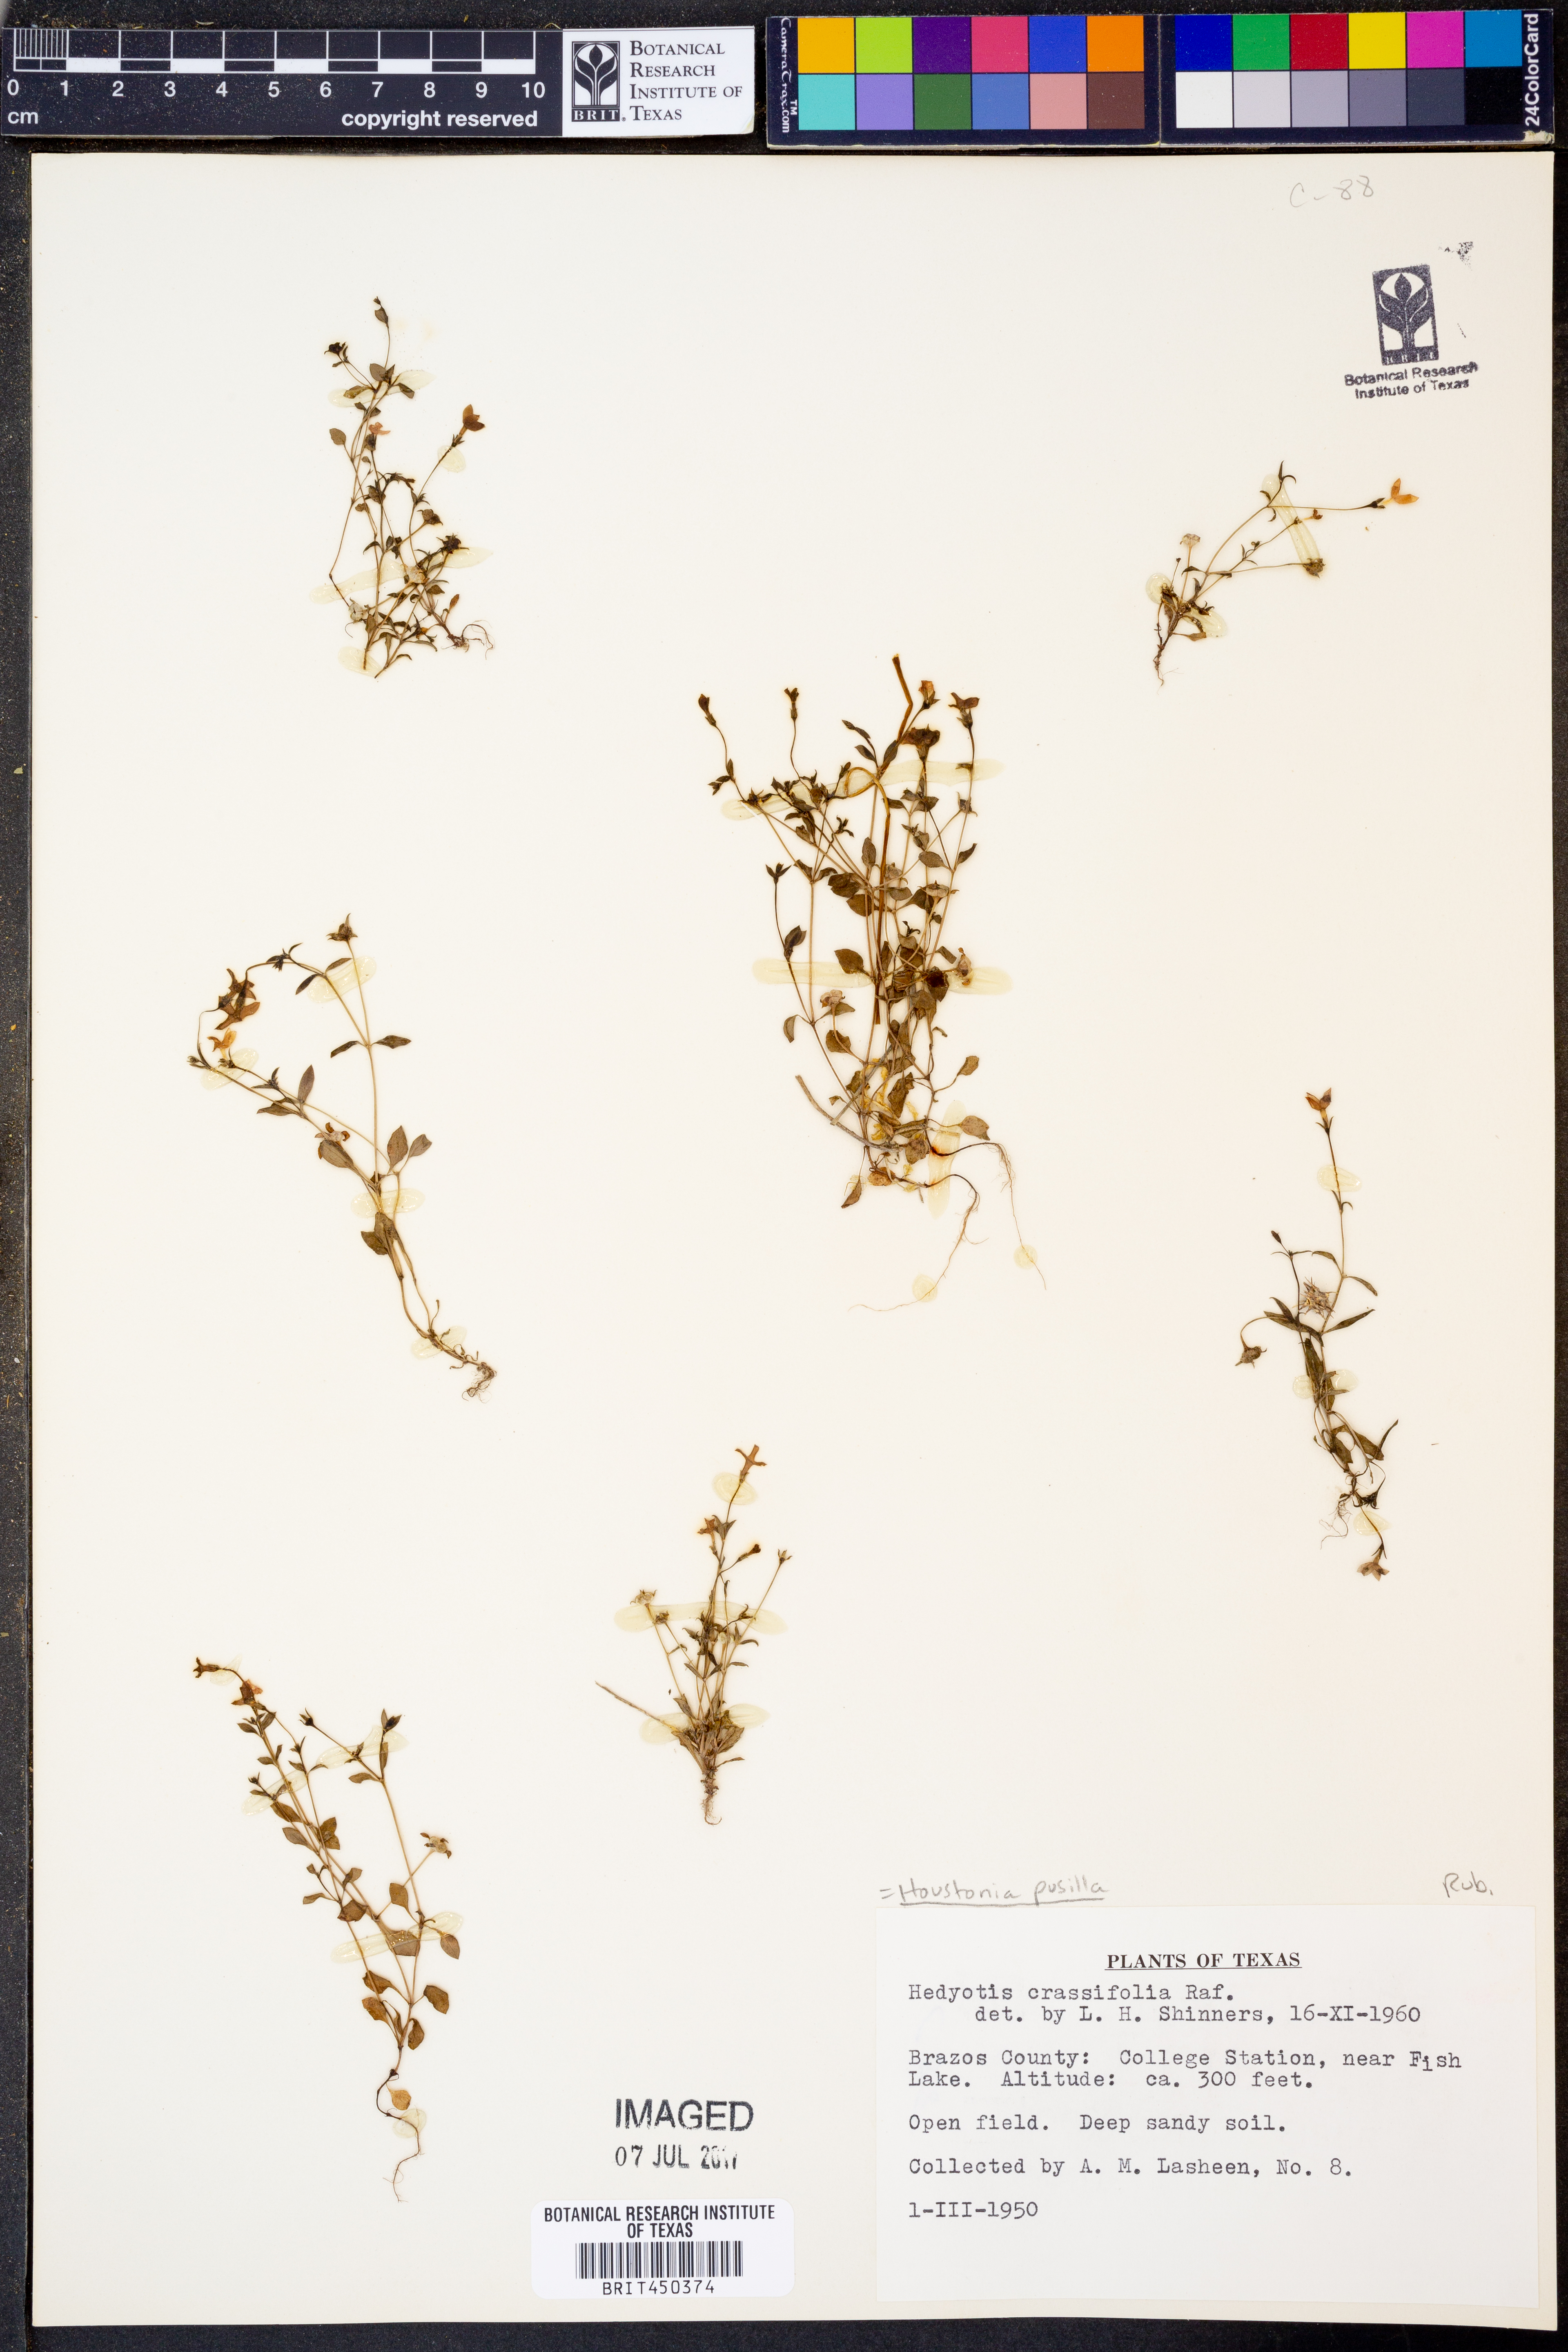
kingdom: Plantae
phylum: Tracheophyta
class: Magnoliopsida
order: Gentianales
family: Rubiaceae
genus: Houstonia
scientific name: Houstonia pusilla
